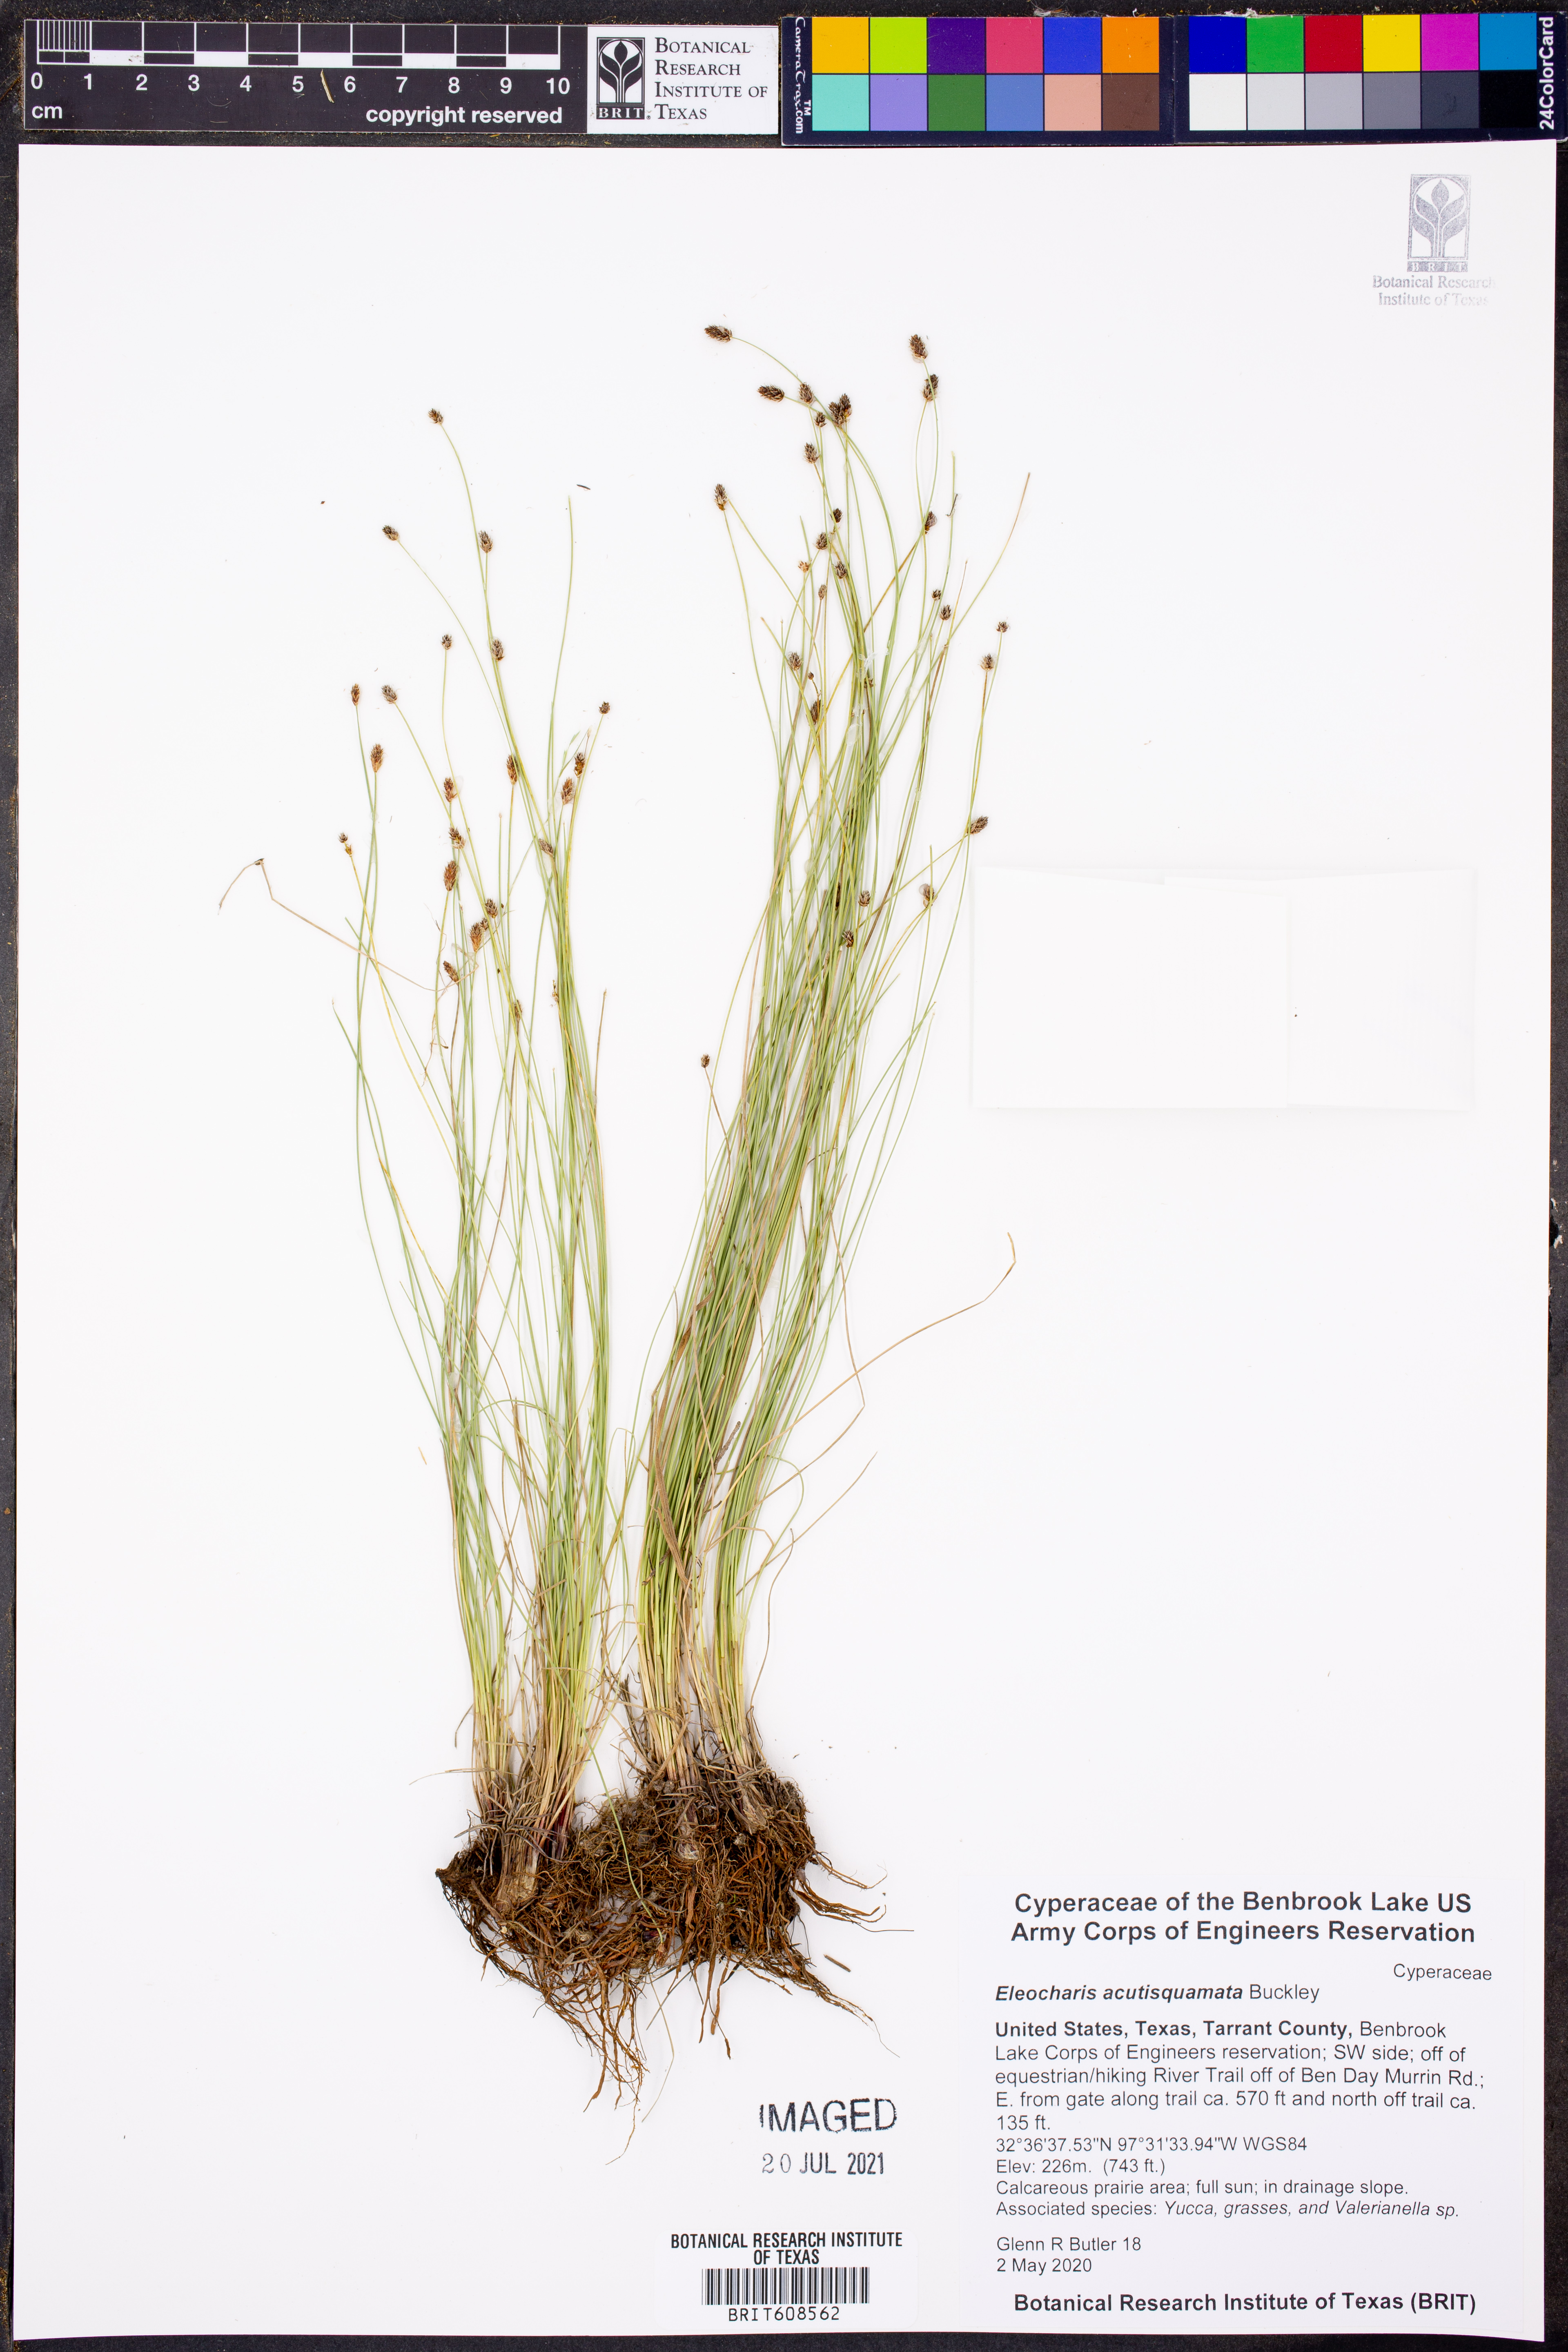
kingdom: Plantae
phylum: Tracheophyta
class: Liliopsida
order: Poales
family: Cyperaceae
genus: Eleocharis
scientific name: Eleocharis compressa
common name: Flat-stem spike-rush
